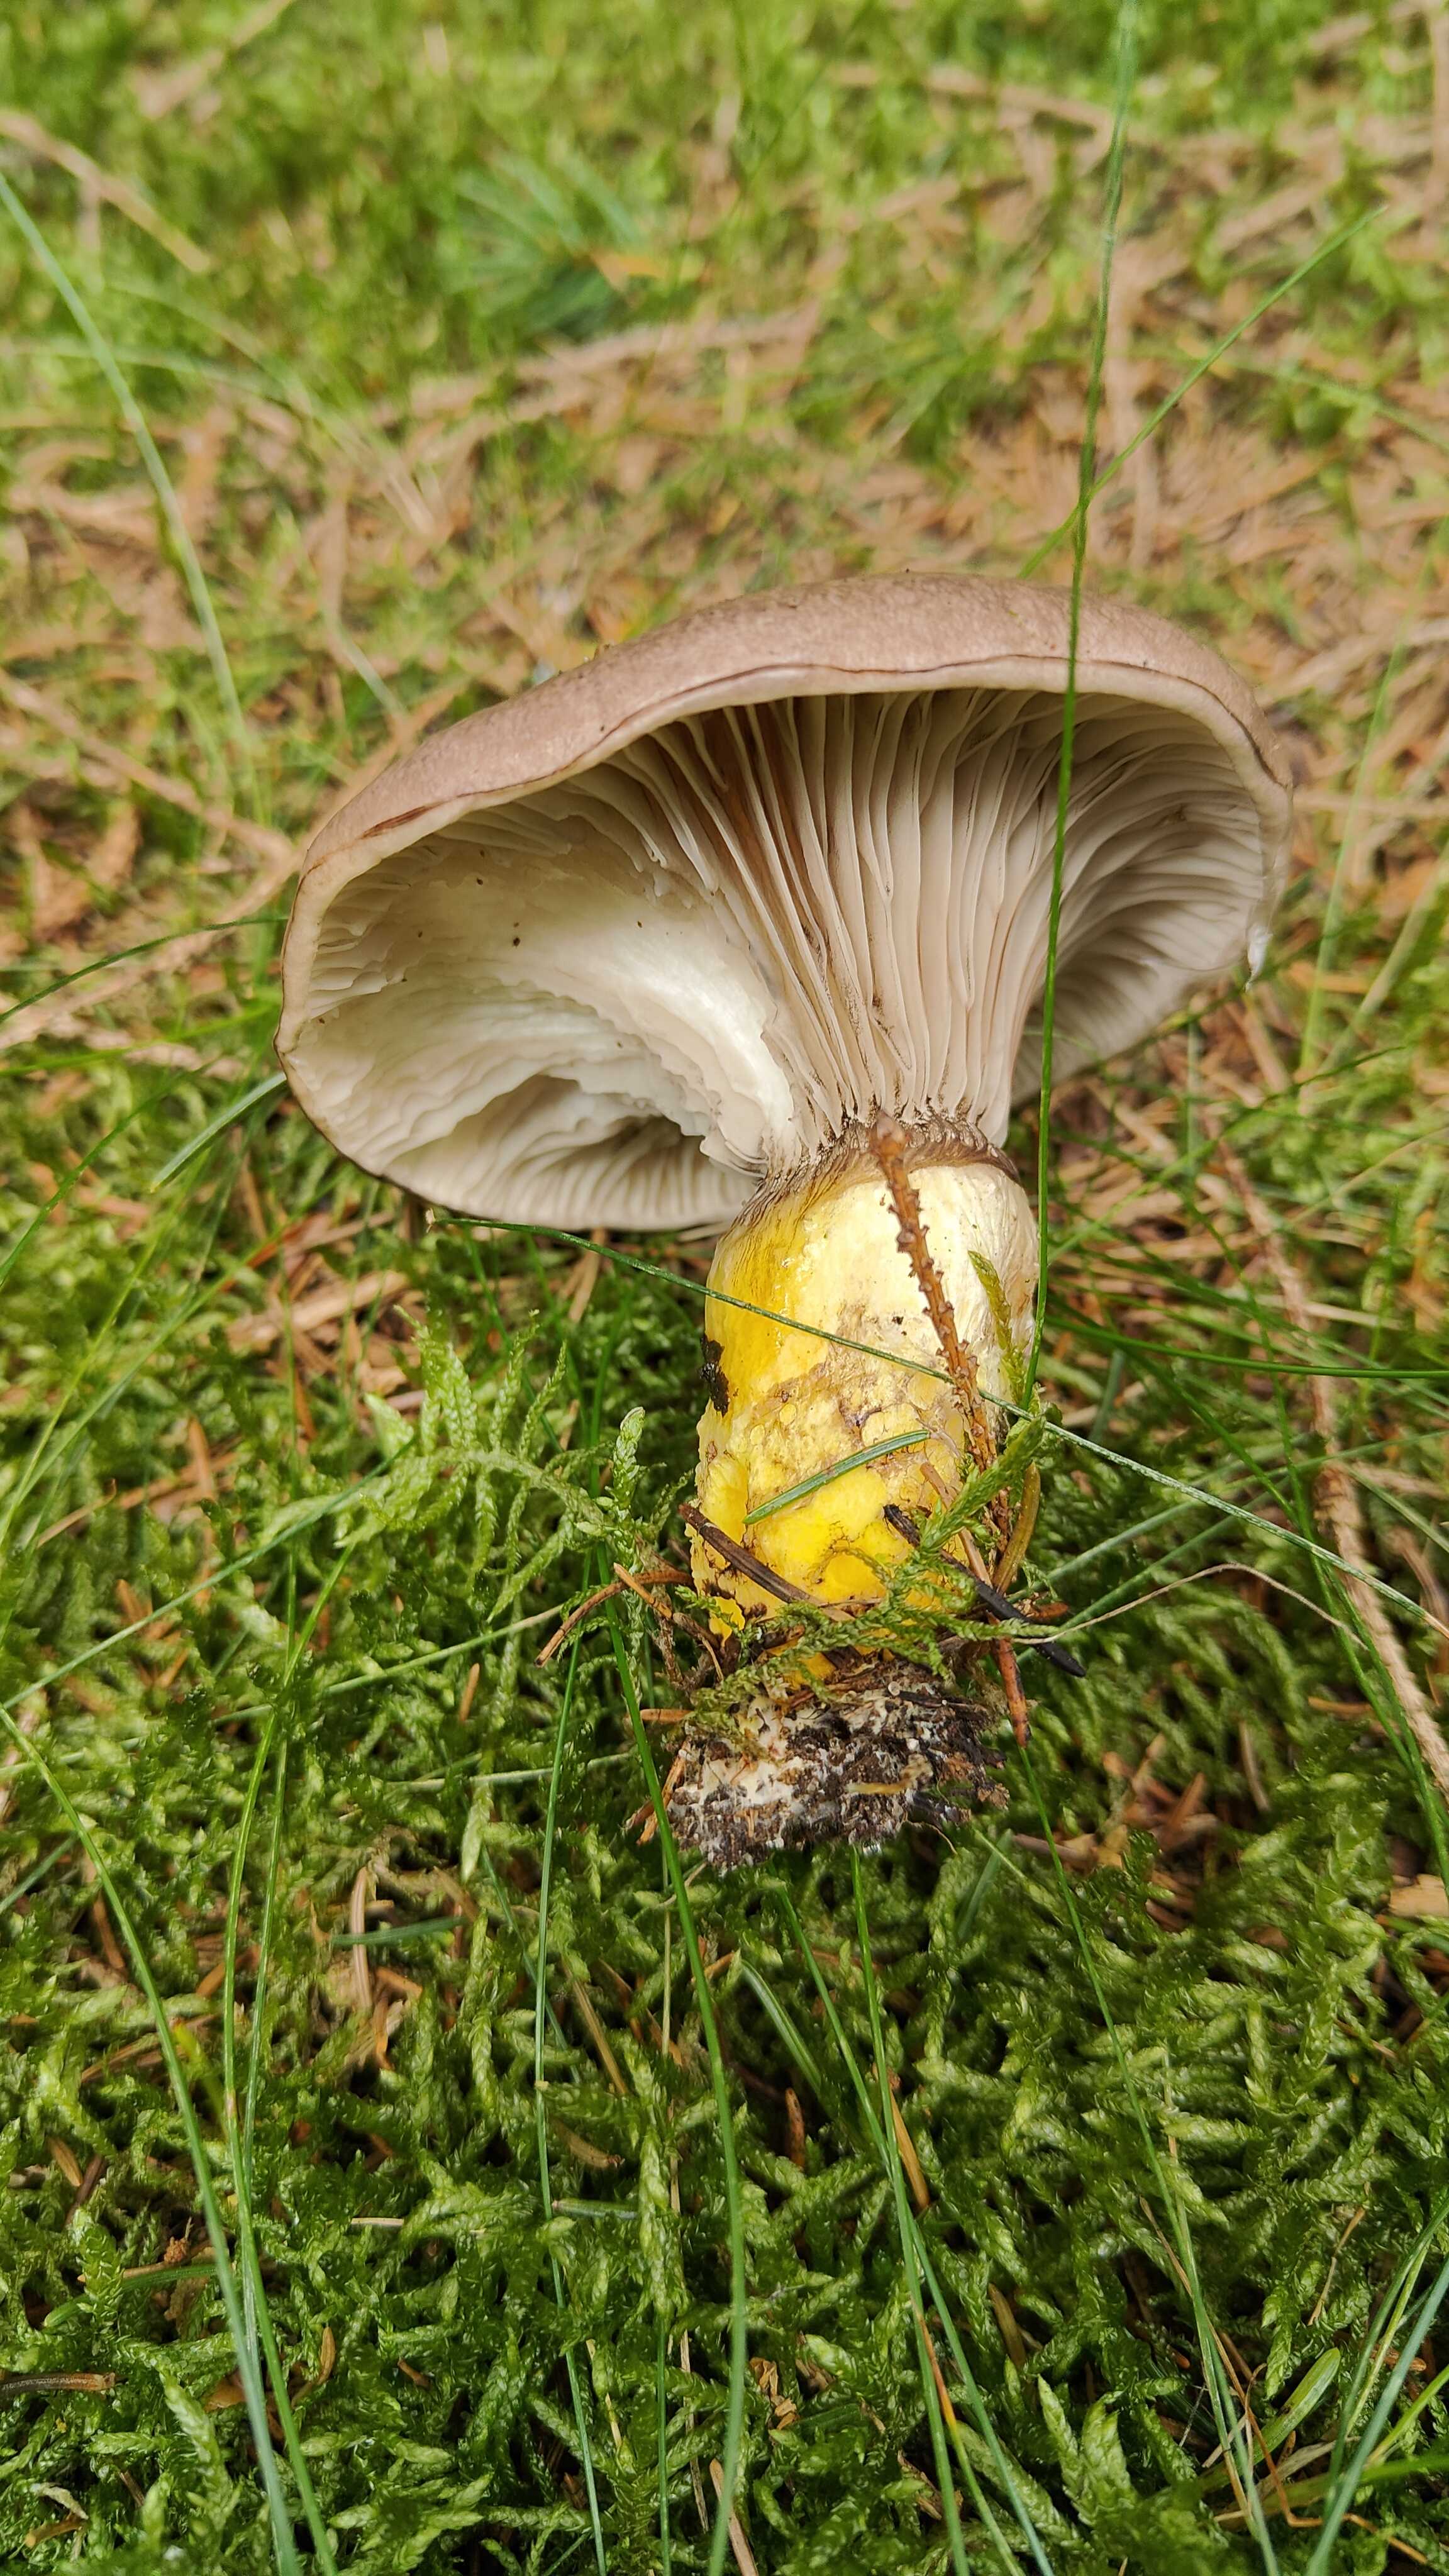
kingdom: Fungi
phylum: Basidiomycota
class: Agaricomycetes
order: Boletales
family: Gomphidiaceae
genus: Gomphidius
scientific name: Gomphidius glutinosus
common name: grå slimslør
